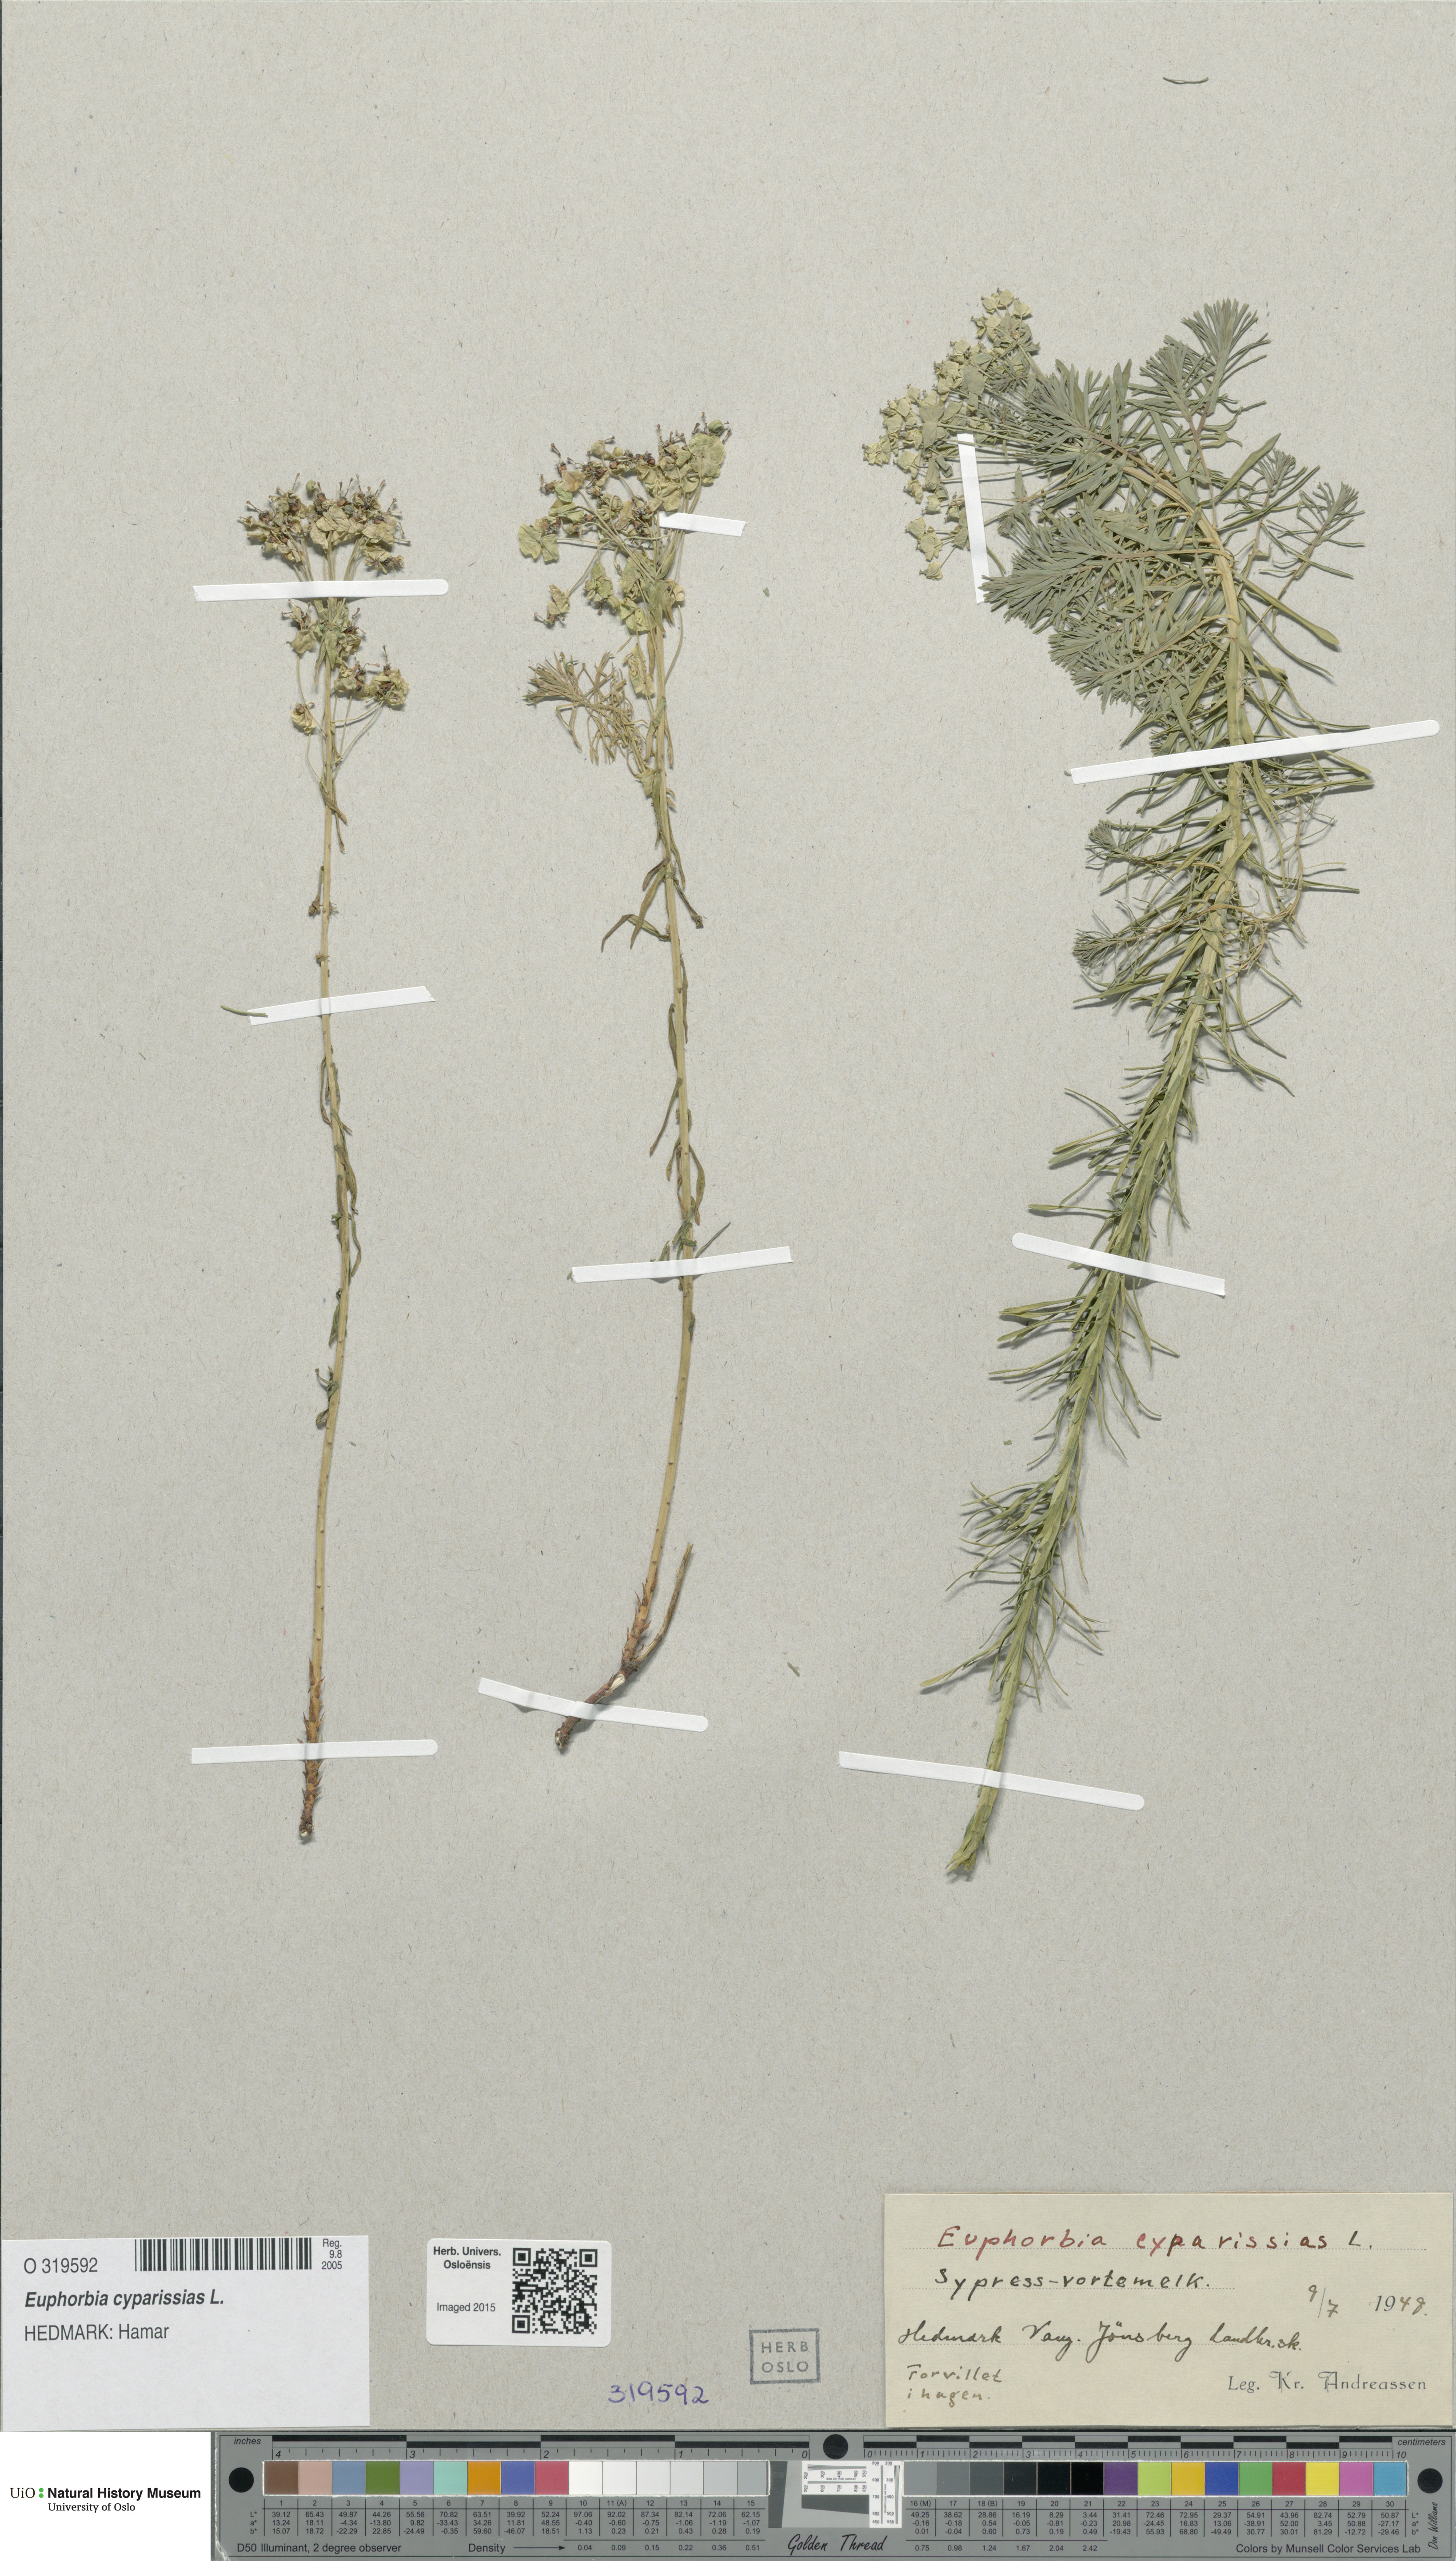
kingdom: Plantae
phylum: Tracheophyta
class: Magnoliopsida
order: Malpighiales
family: Euphorbiaceae
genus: Euphorbia
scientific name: Euphorbia cyparissias
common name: Cypress spurge
